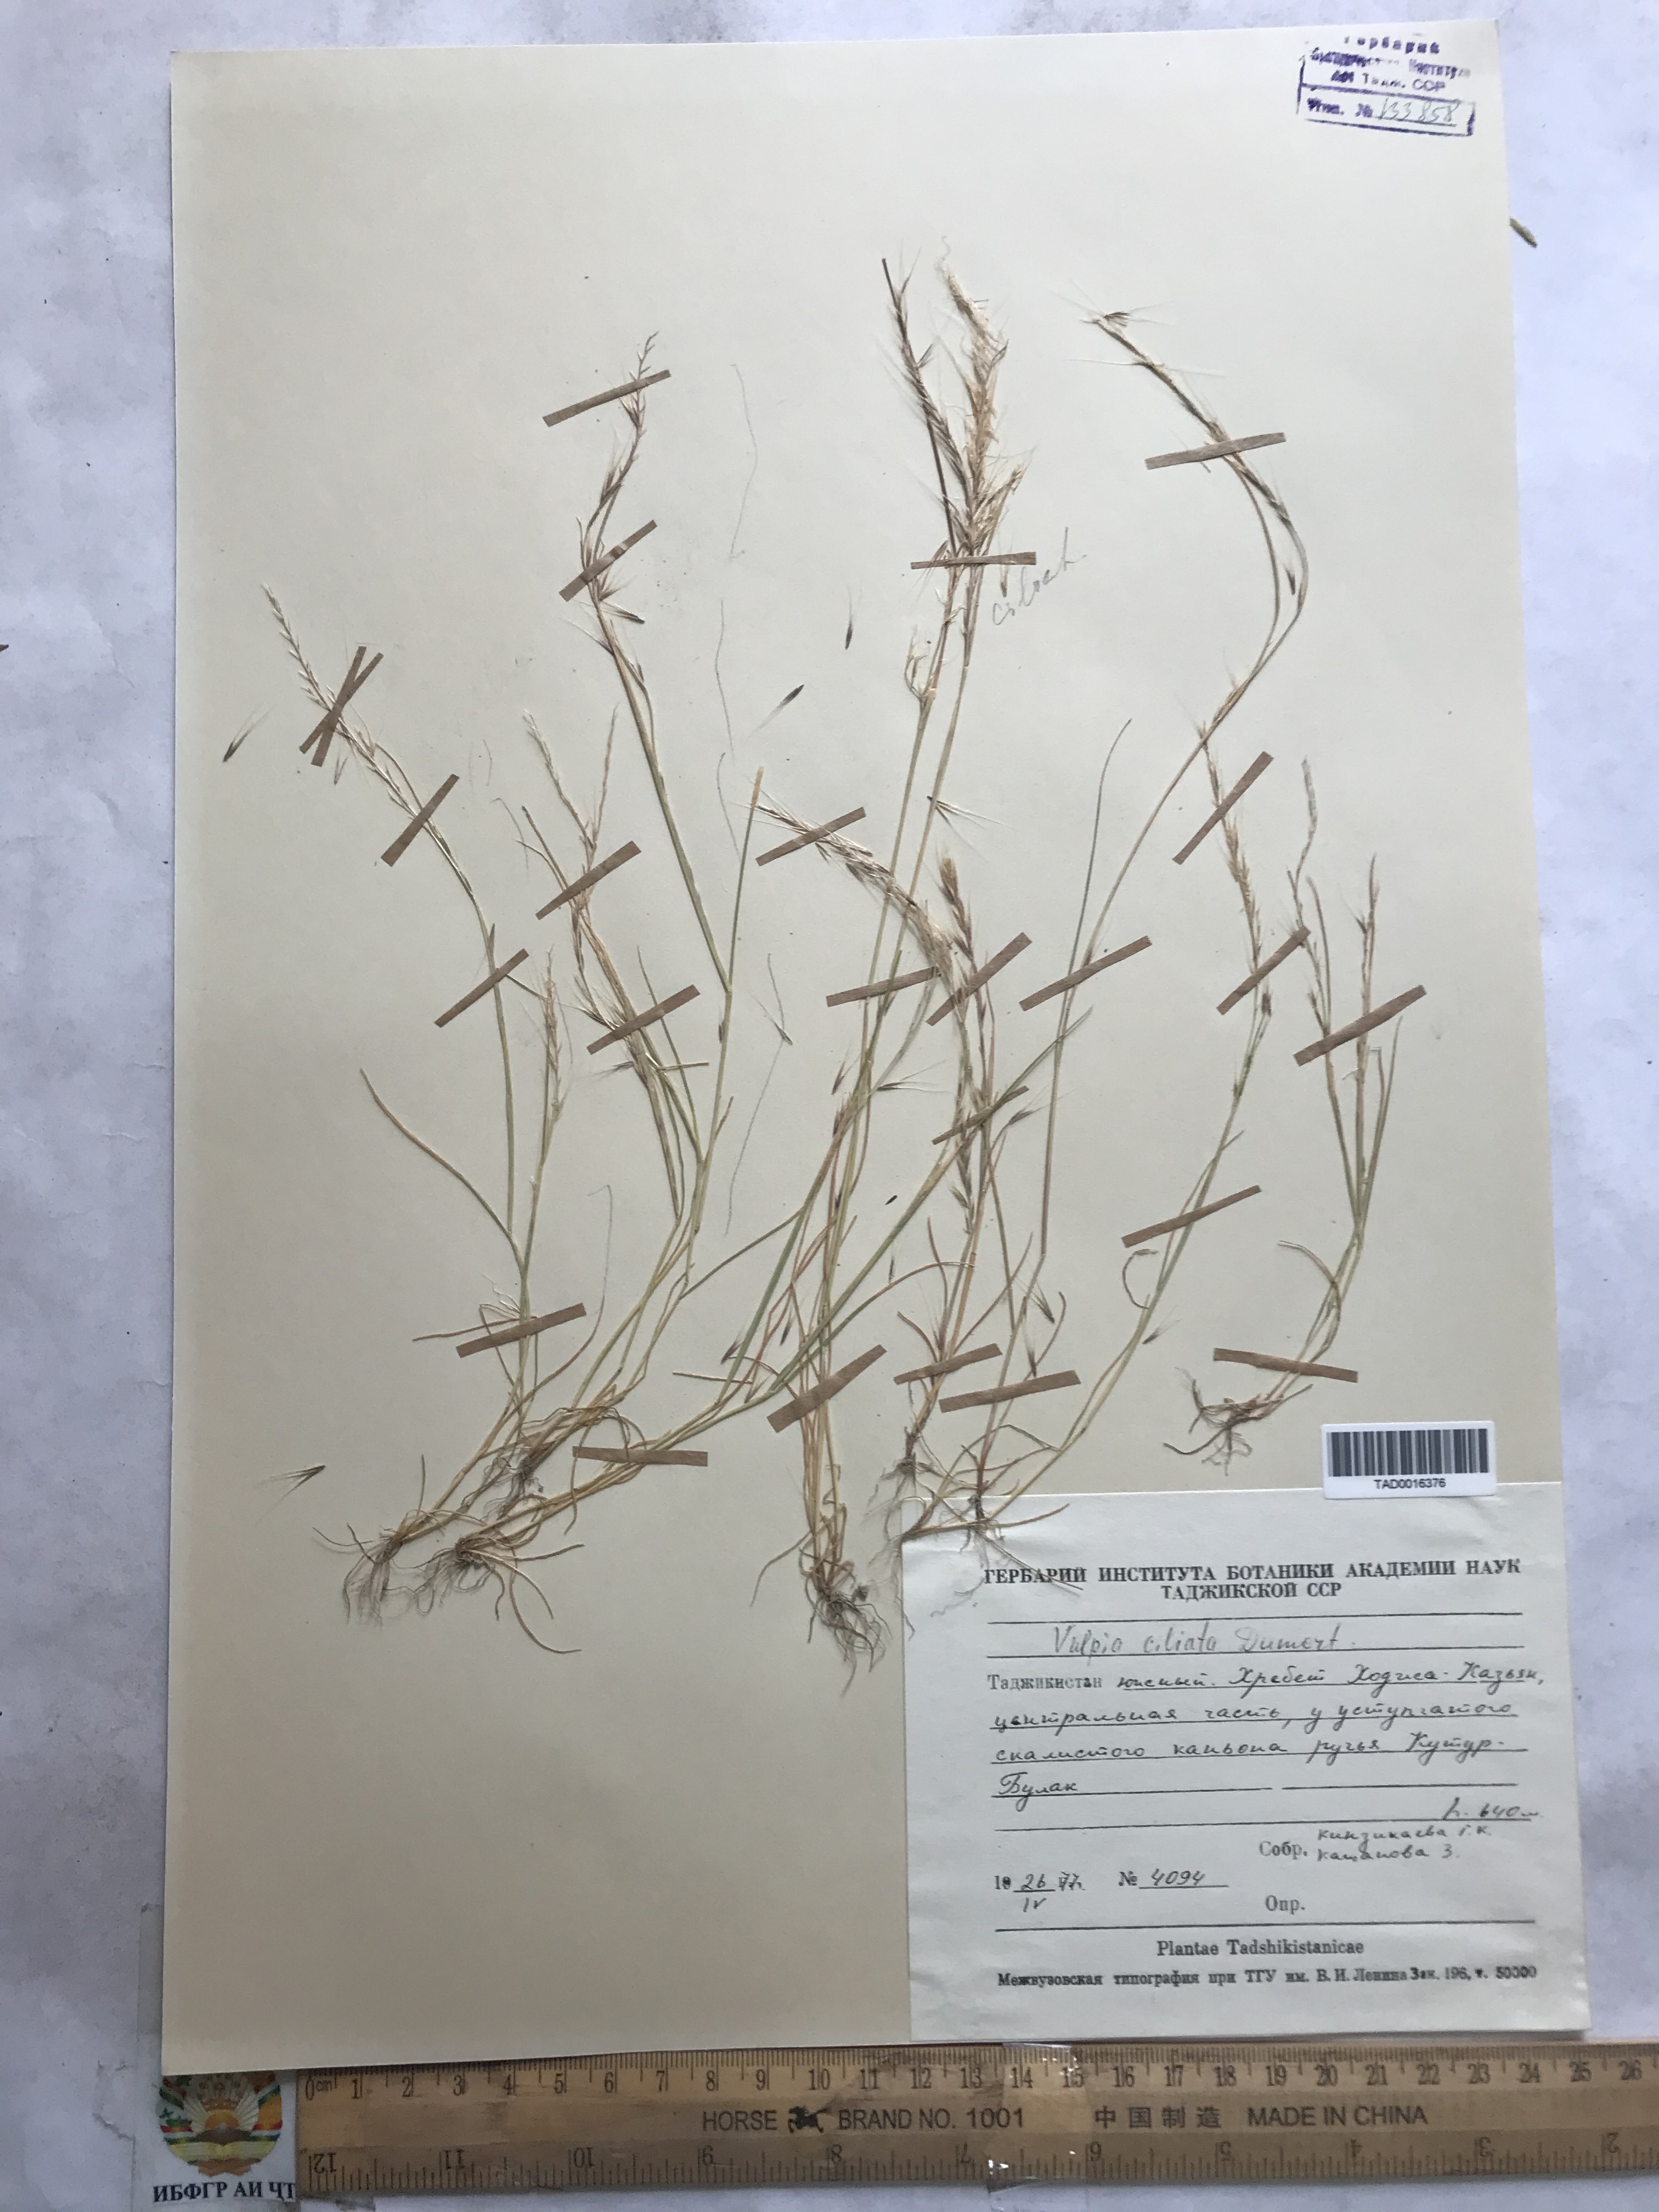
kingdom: Plantae
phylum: Tracheophyta
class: Liliopsida
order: Poales
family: Poaceae
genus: Festuca
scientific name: Festuca ambigua
